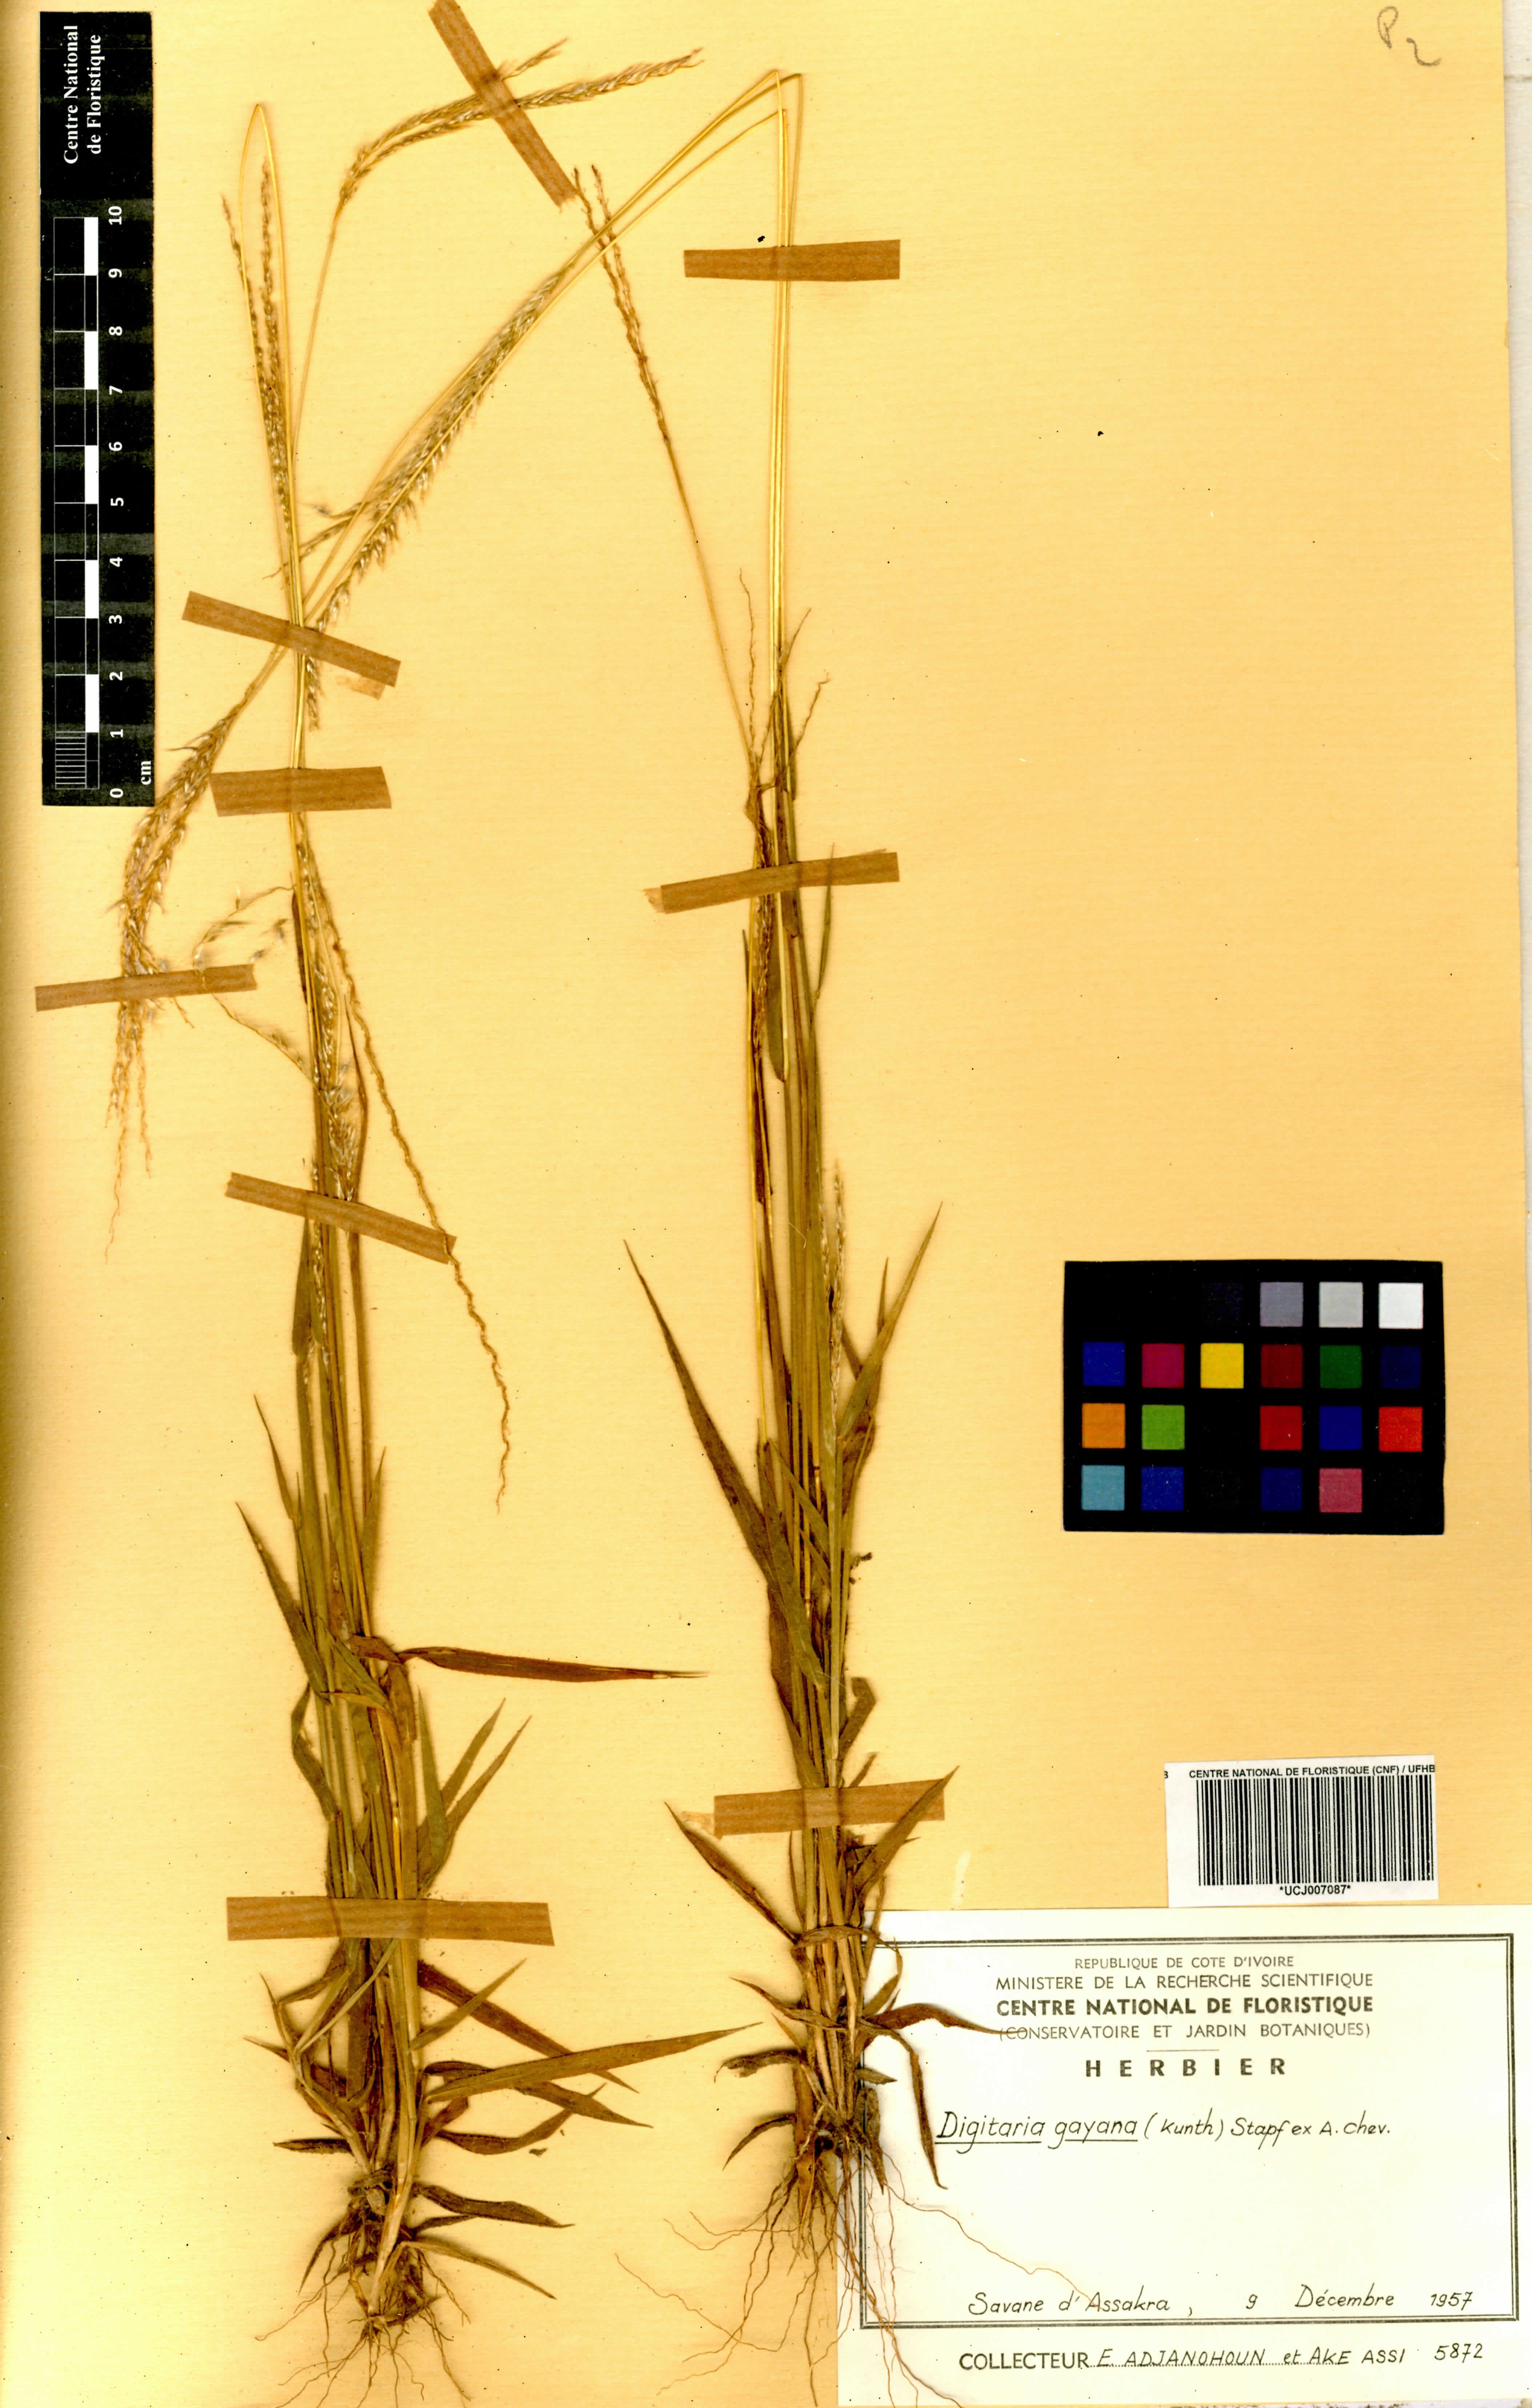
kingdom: Plantae
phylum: Tracheophyta
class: Liliopsida
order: Poales
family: Poaceae
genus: Digitaria
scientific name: Digitaria gayana
